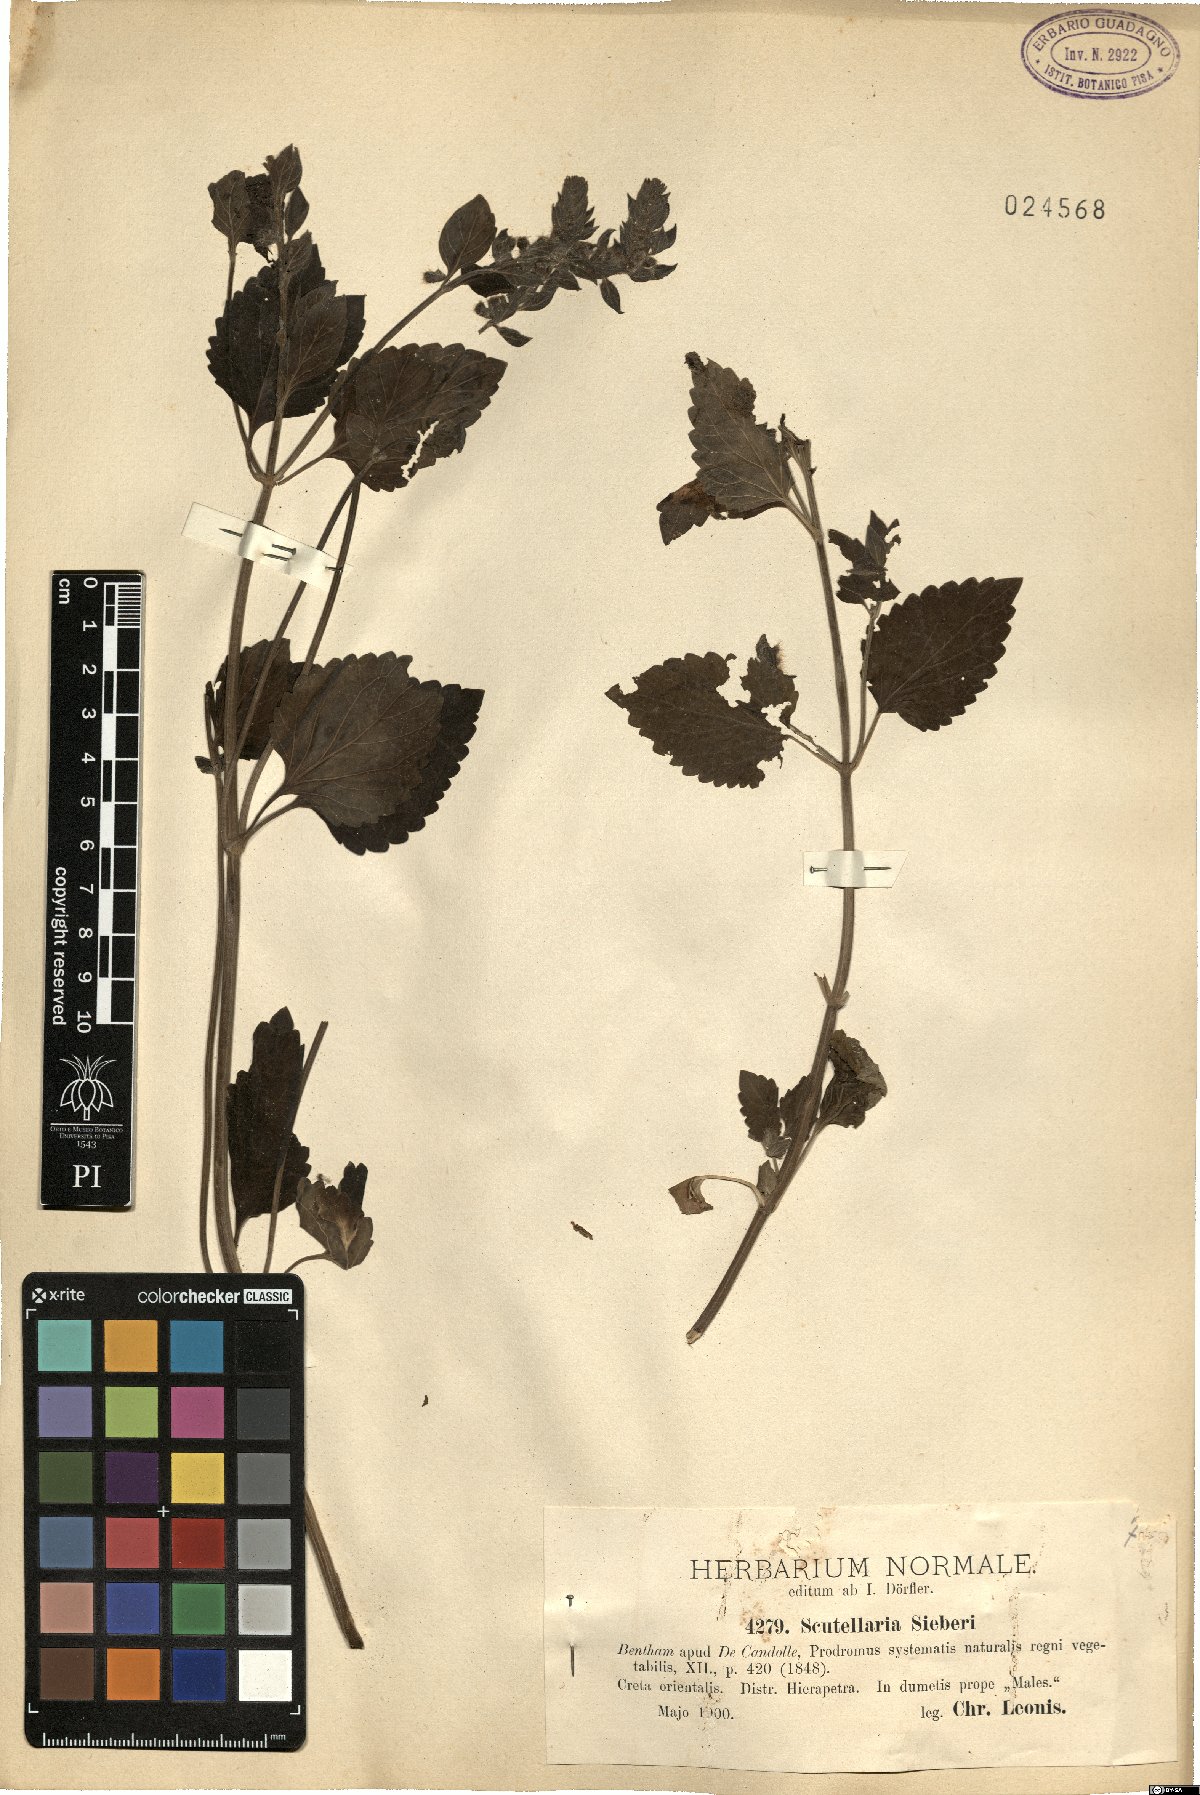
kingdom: Plantae
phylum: Tracheophyta
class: Magnoliopsida
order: Lamiales
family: Lamiaceae
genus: Scutellaria
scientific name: Scutellaria sieberi
